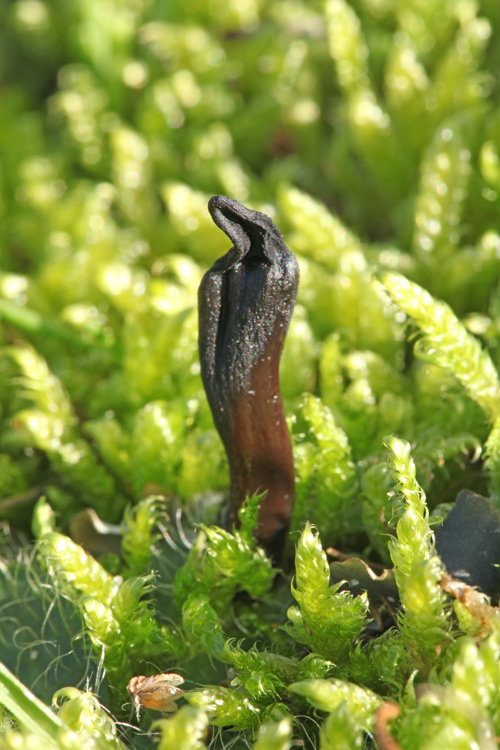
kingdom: Fungi
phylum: Ascomycota
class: Geoglossomycetes
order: Geoglossales
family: Geoglossaceae
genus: Glutinoglossum
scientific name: Glutinoglossum glutinosum
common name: slimet jordtunge
